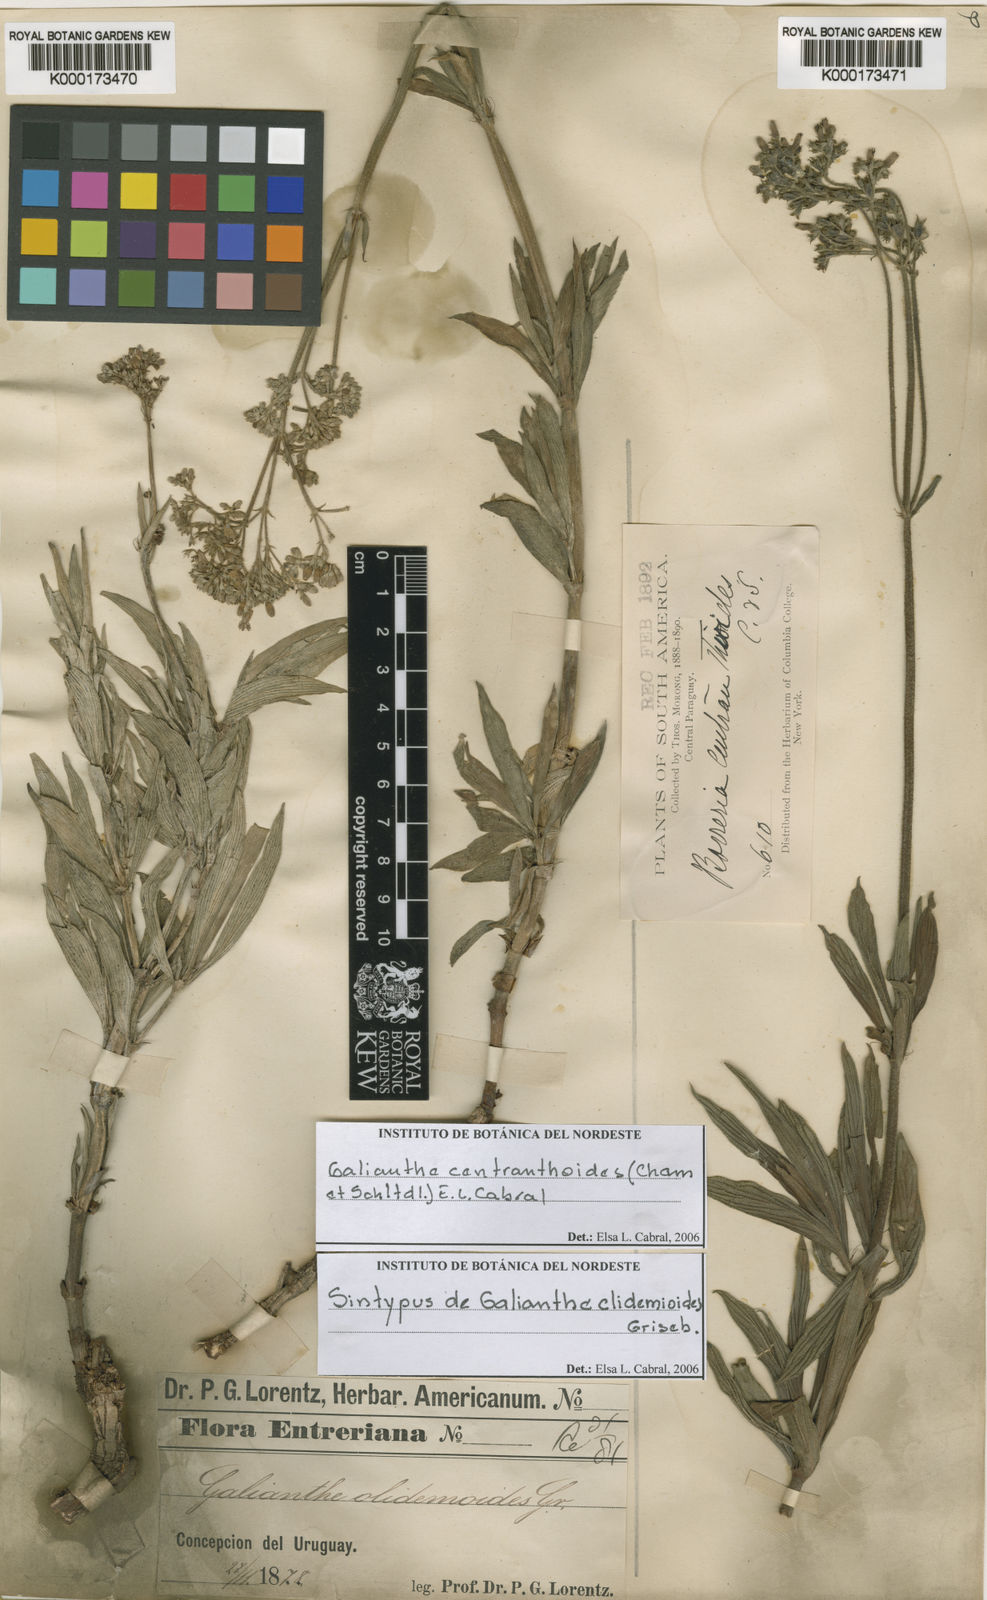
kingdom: Plantae
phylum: Tracheophyta
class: Magnoliopsida
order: Gentianales
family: Rubiaceae
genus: Galianthe
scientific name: Galianthe centranthoides
